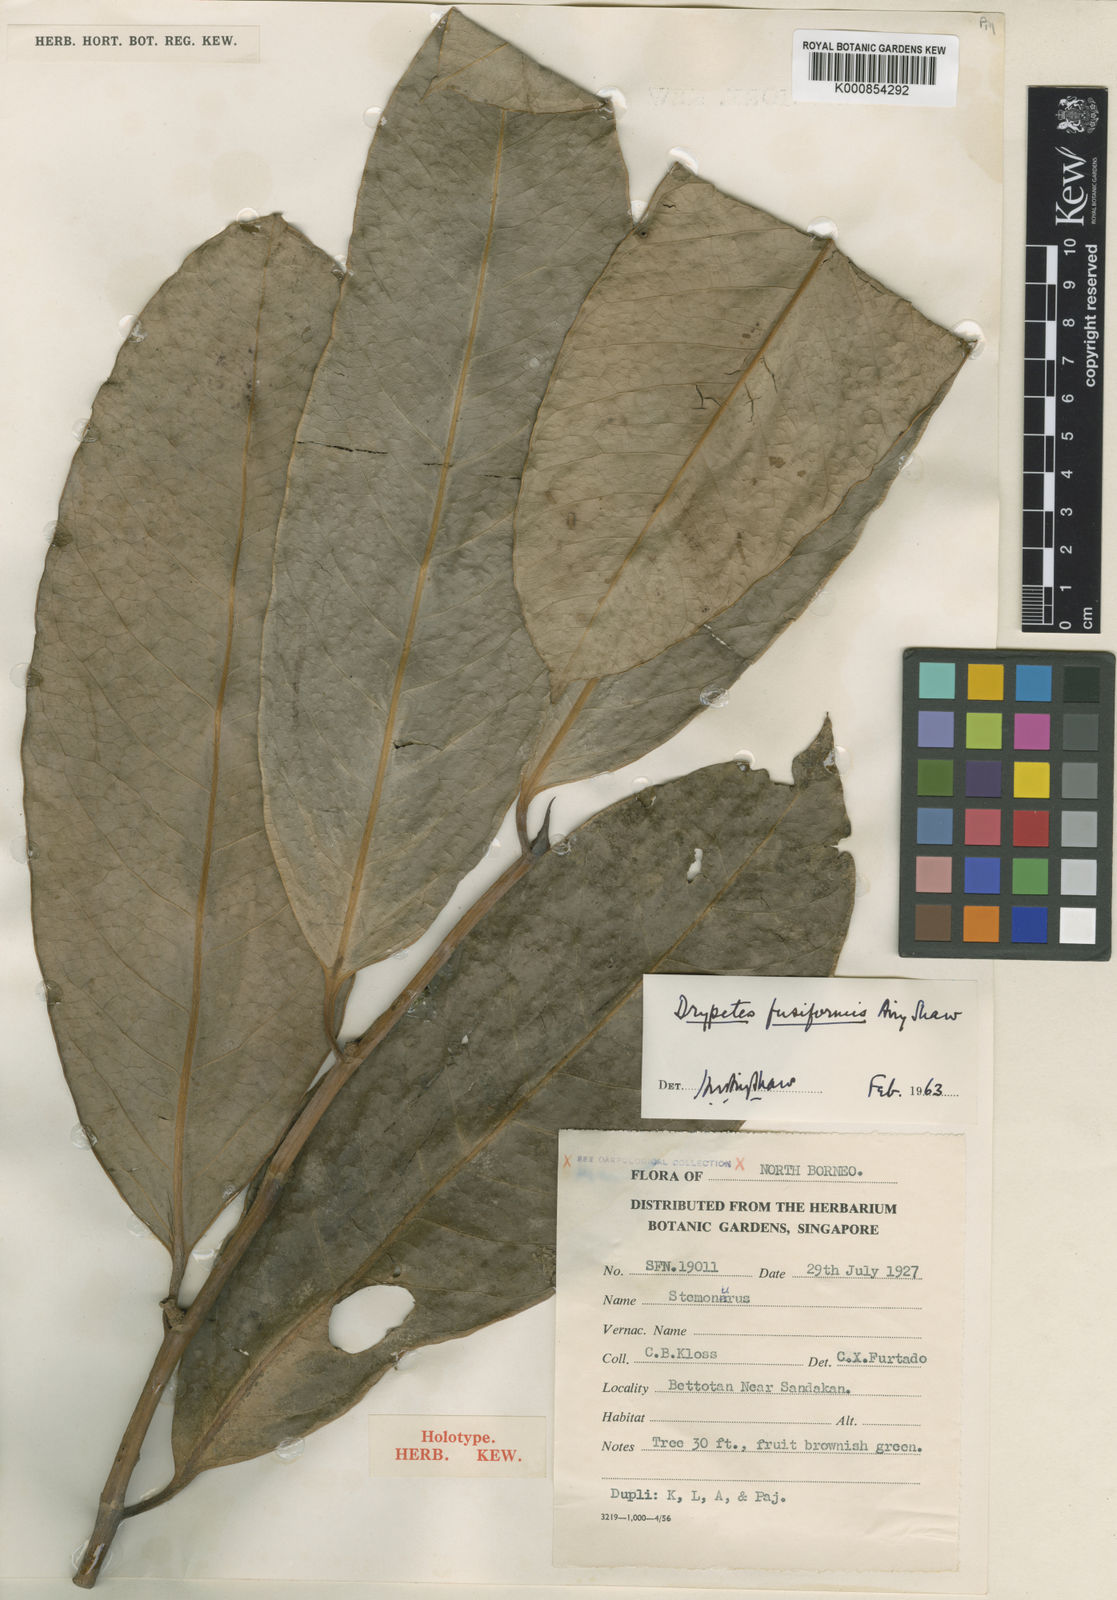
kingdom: Plantae
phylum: Tracheophyta
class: Magnoliopsida
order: Malpighiales
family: Putranjivaceae
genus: Drypetes
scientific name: Drypetes fusiformis
